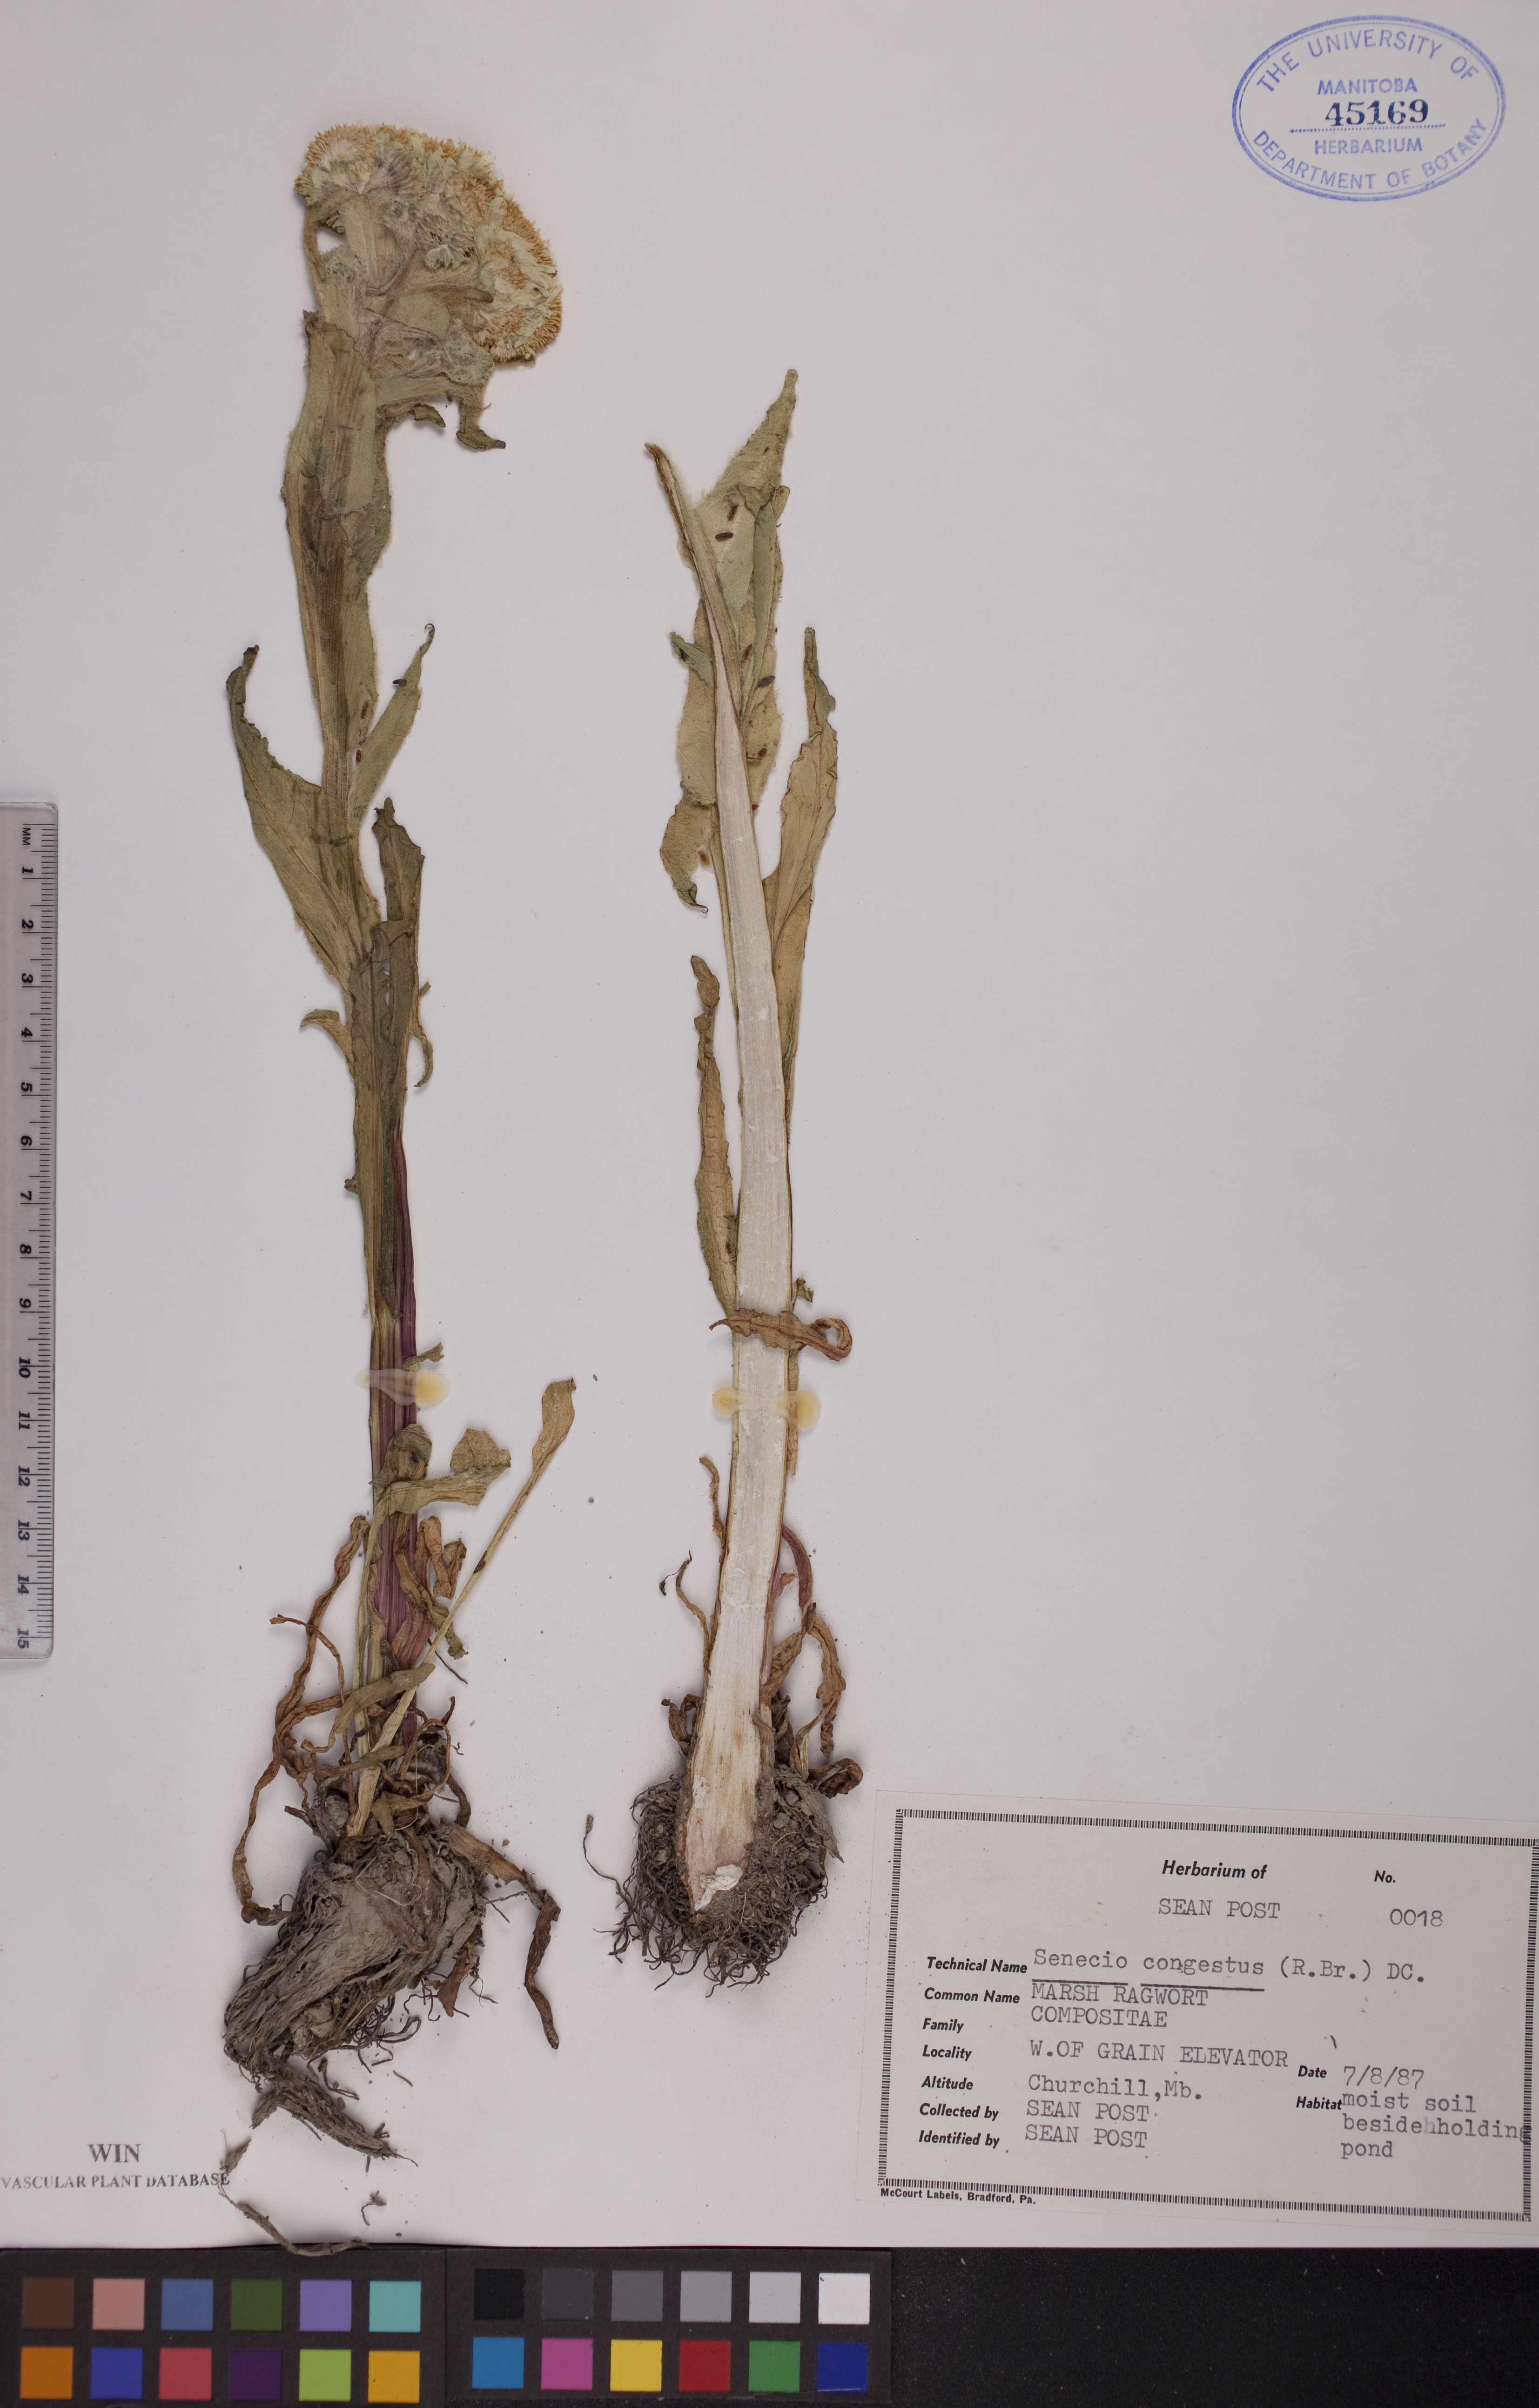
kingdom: Plantae
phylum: Tracheophyta
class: Magnoliopsida
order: Asterales
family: Asteraceae
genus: Tephroseris
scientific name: Tephroseris palustris
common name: Marsh fleawort
